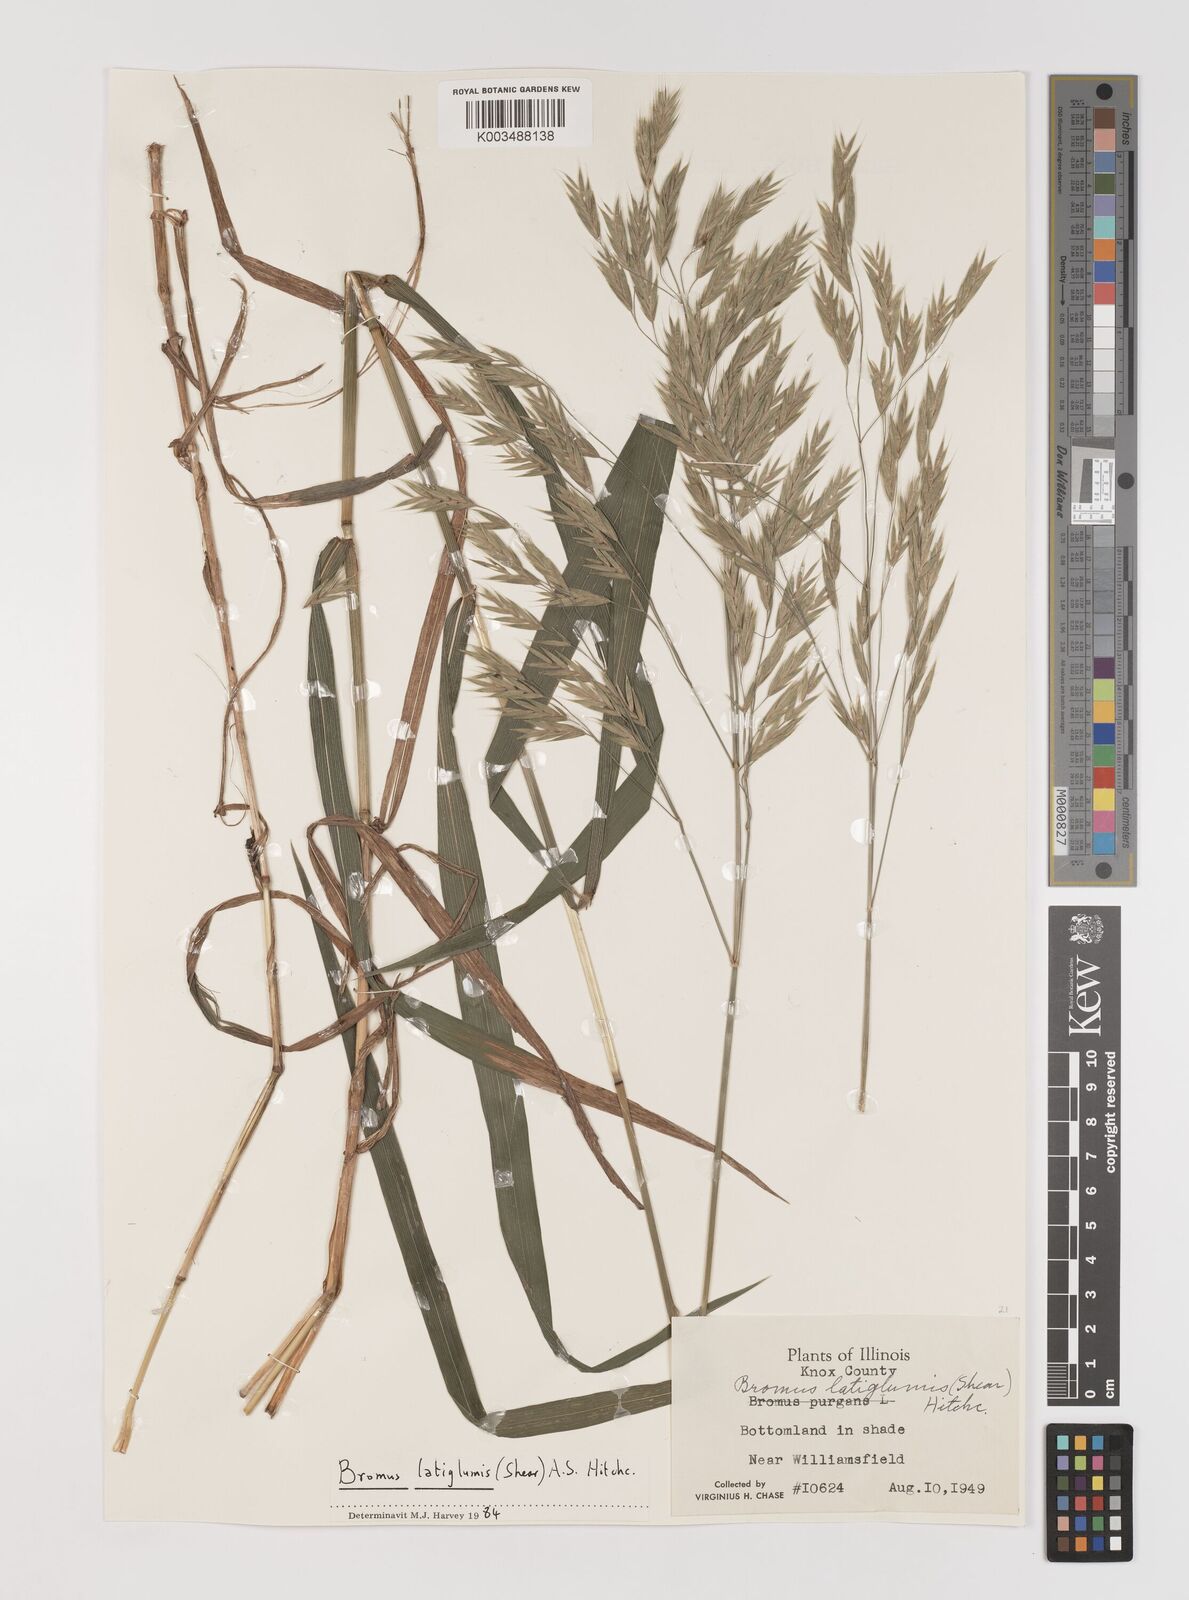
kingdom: Plantae
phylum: Tracheophyta
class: Liliopsida
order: Poales
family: Poaceae
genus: Bromus
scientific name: Bromus latiglumis
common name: Broad-glumed brome
